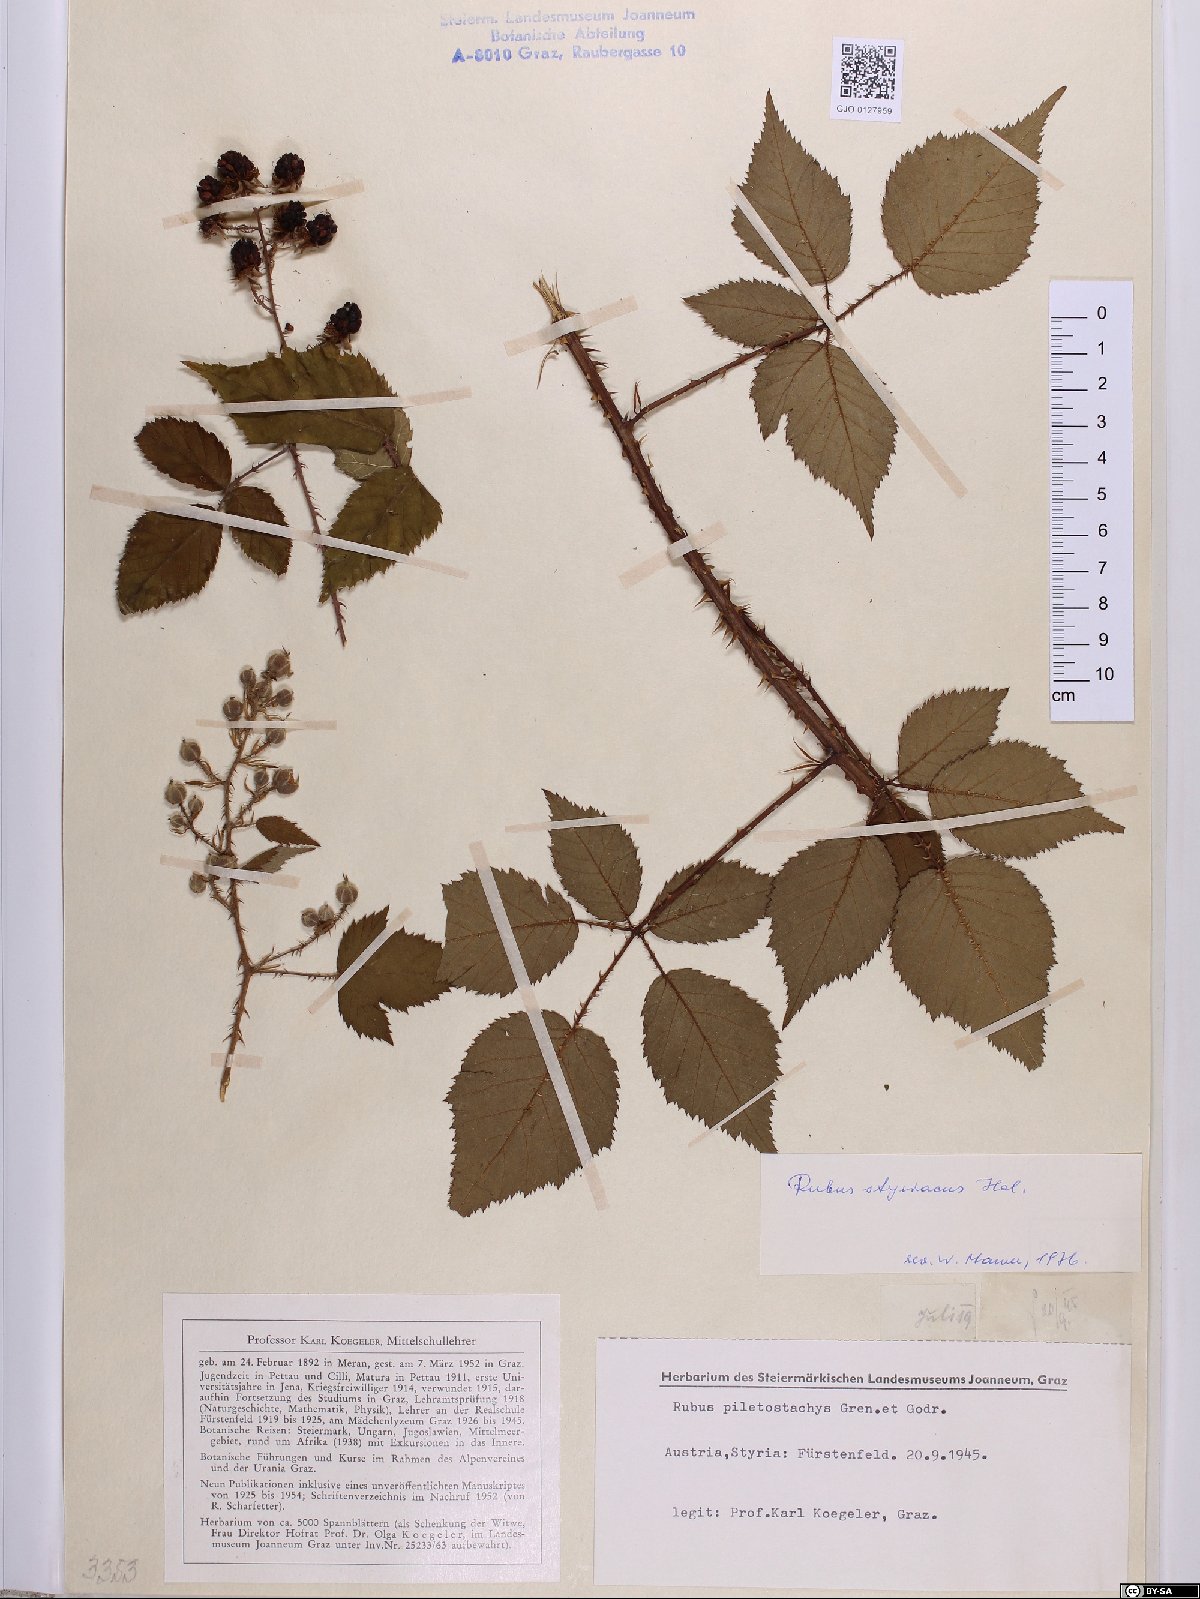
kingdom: Plantae
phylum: Tracheophyta
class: Magnoliopsida
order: Rosales
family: Rosaceae
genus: Rubus
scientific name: Rubus styriacus
